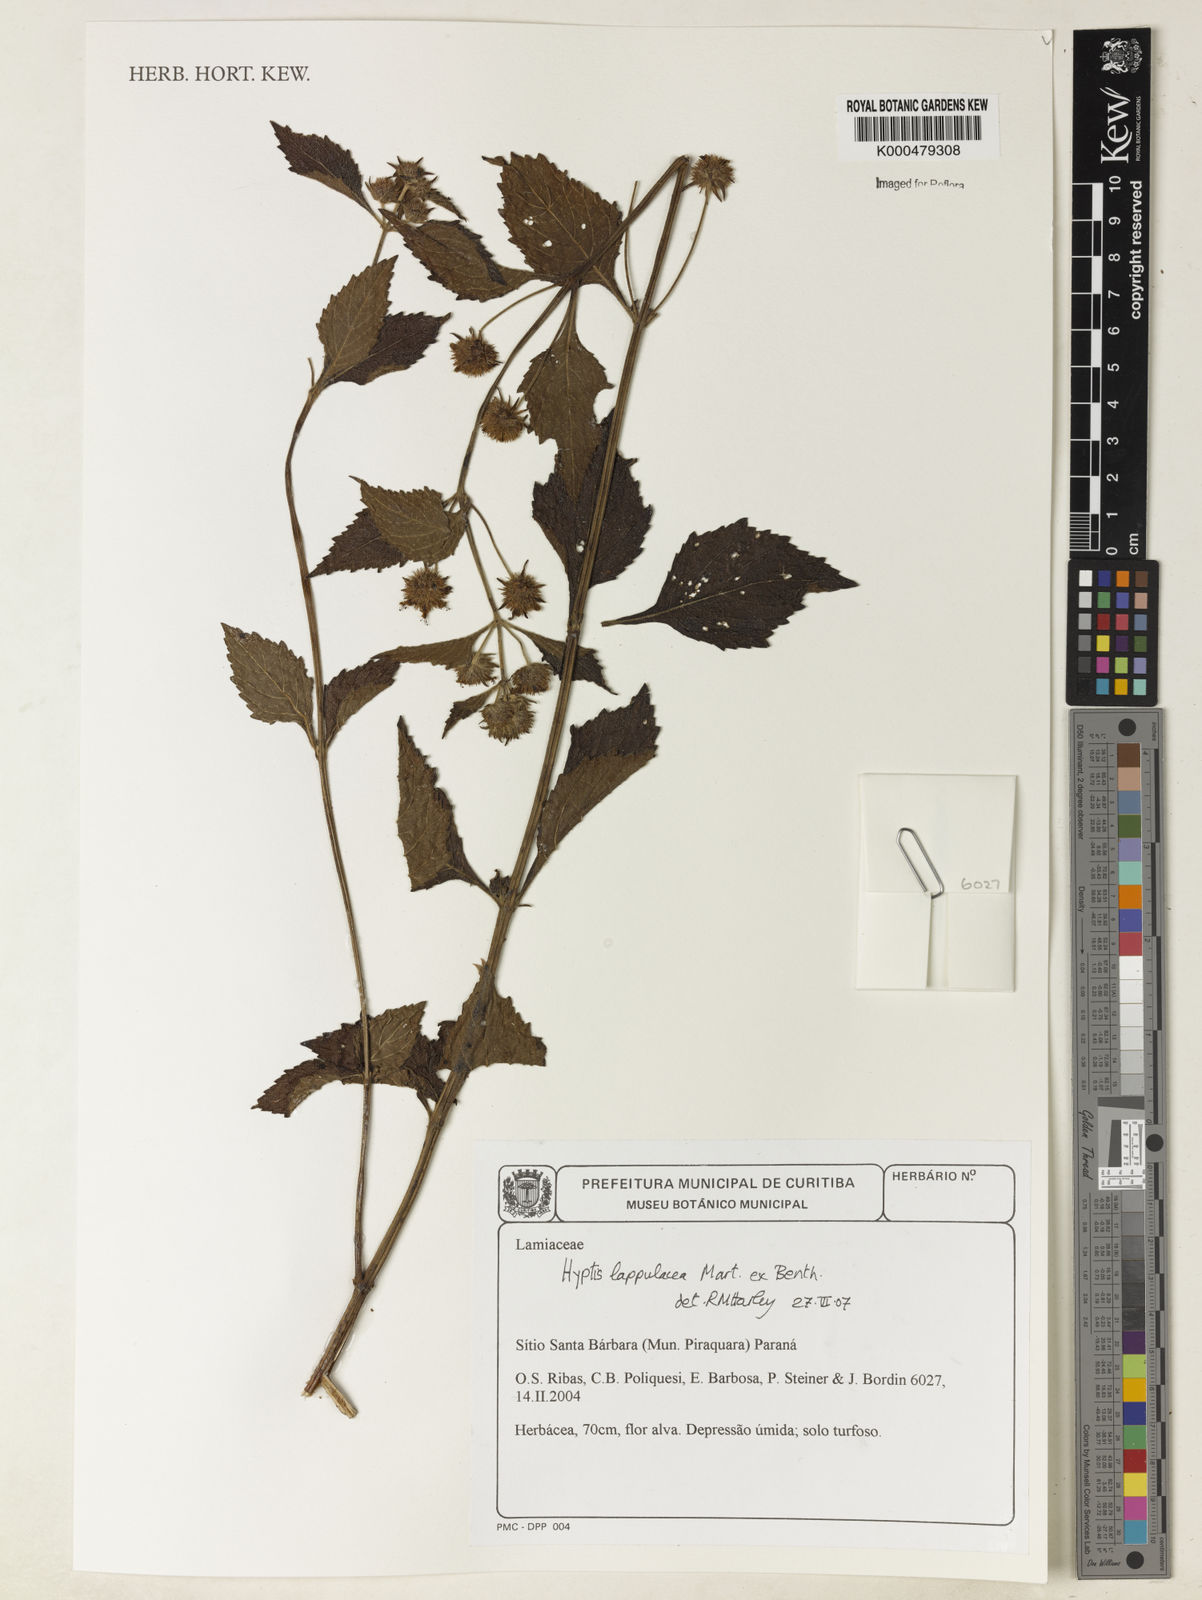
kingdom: Plantae
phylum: Tracheophyta
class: Magnoliopsida
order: Lamiales
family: Lamiaceae
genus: Hyptis
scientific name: Hyptis lappulacea
